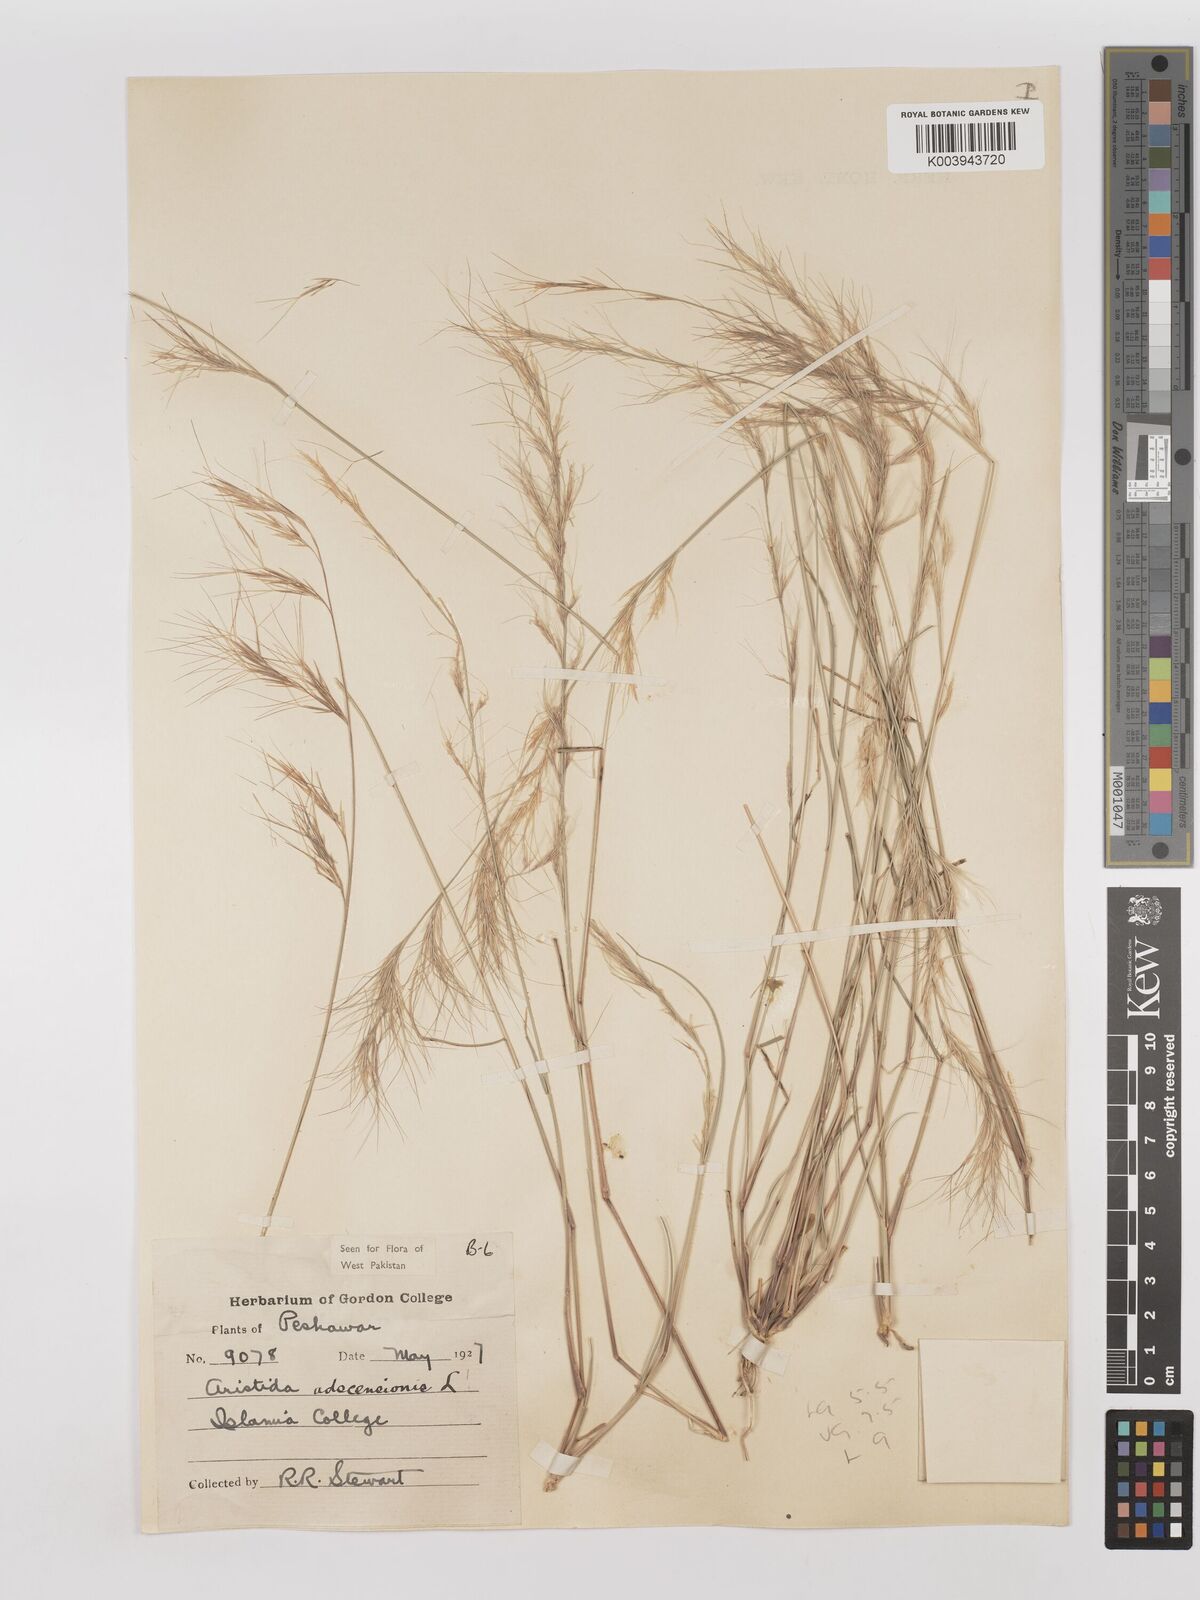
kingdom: Plantae
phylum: Tracheophyta
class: Liliopsida
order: Poales
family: Poaceae
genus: Aristida
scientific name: Aristida adscensionis
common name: Sixweeks threeawn
